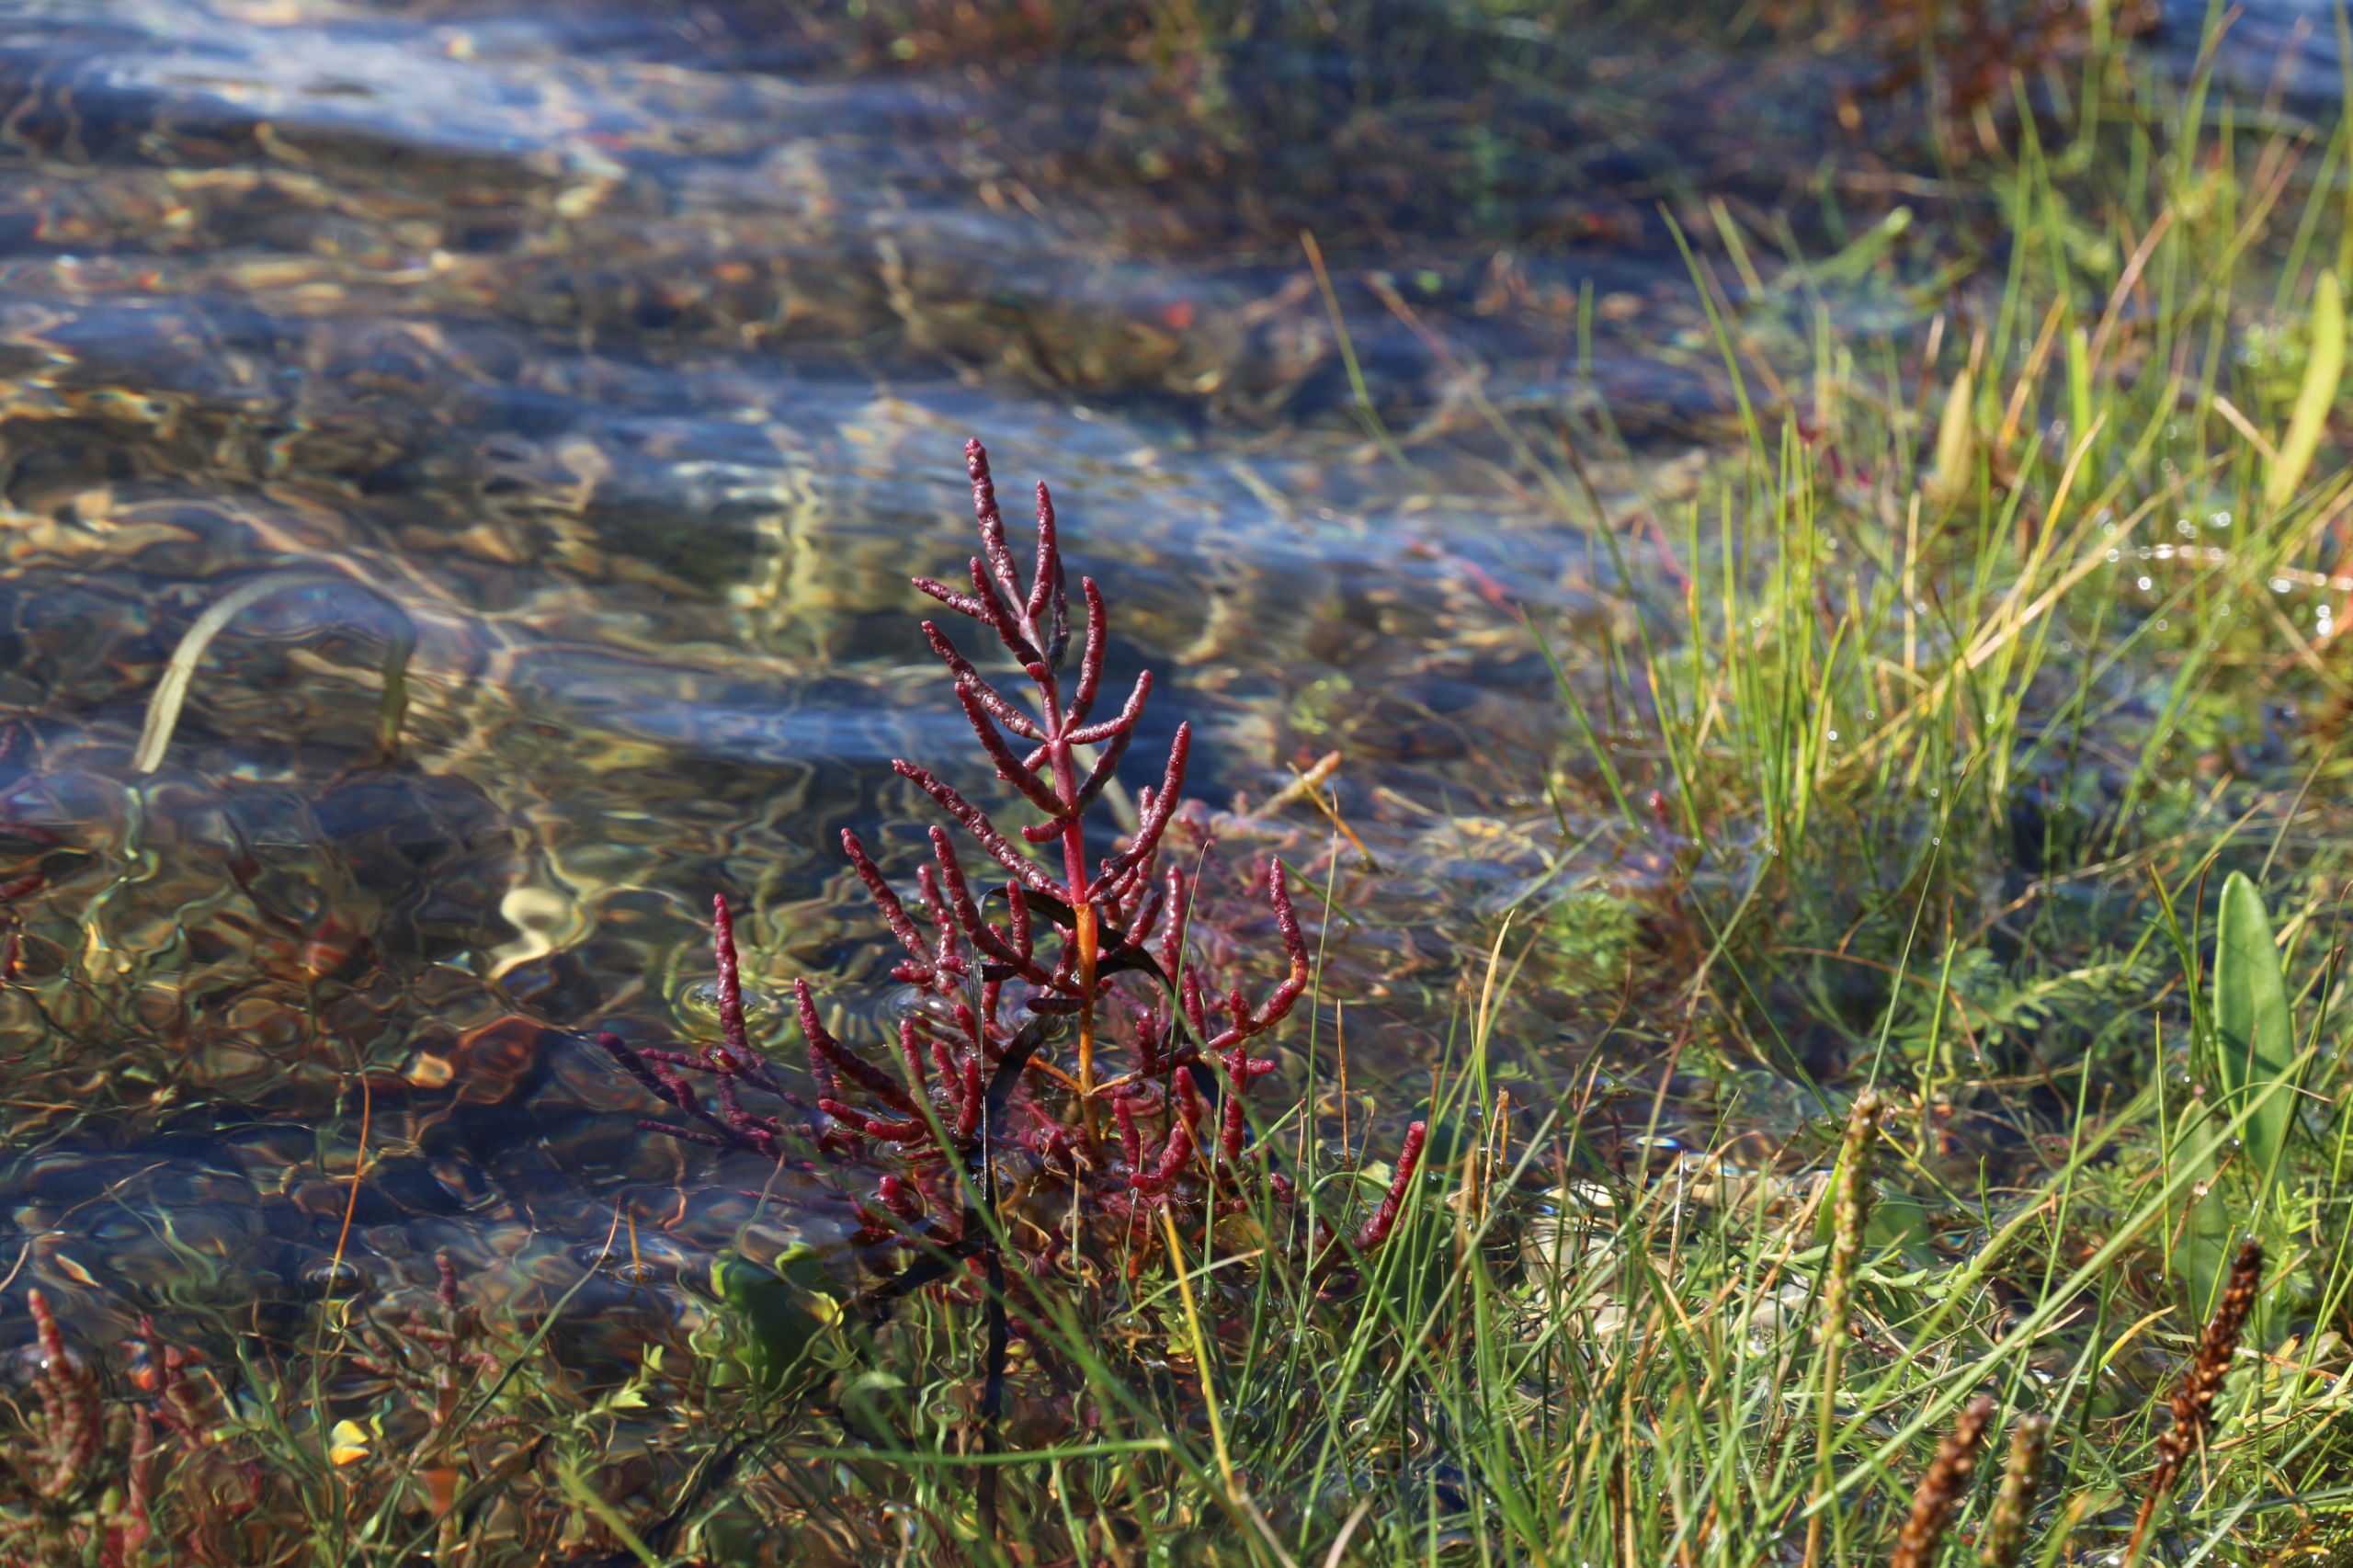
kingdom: Plantae
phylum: Tracheophyta
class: Magnoliopsida
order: Caryophyllales
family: Amaranthaceae
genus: Salicornia
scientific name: Salicornia europaea
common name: Almindelig salturt
